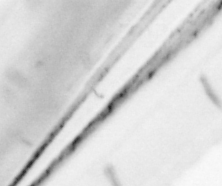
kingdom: Animalia
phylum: Chordata
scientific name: Chordata
